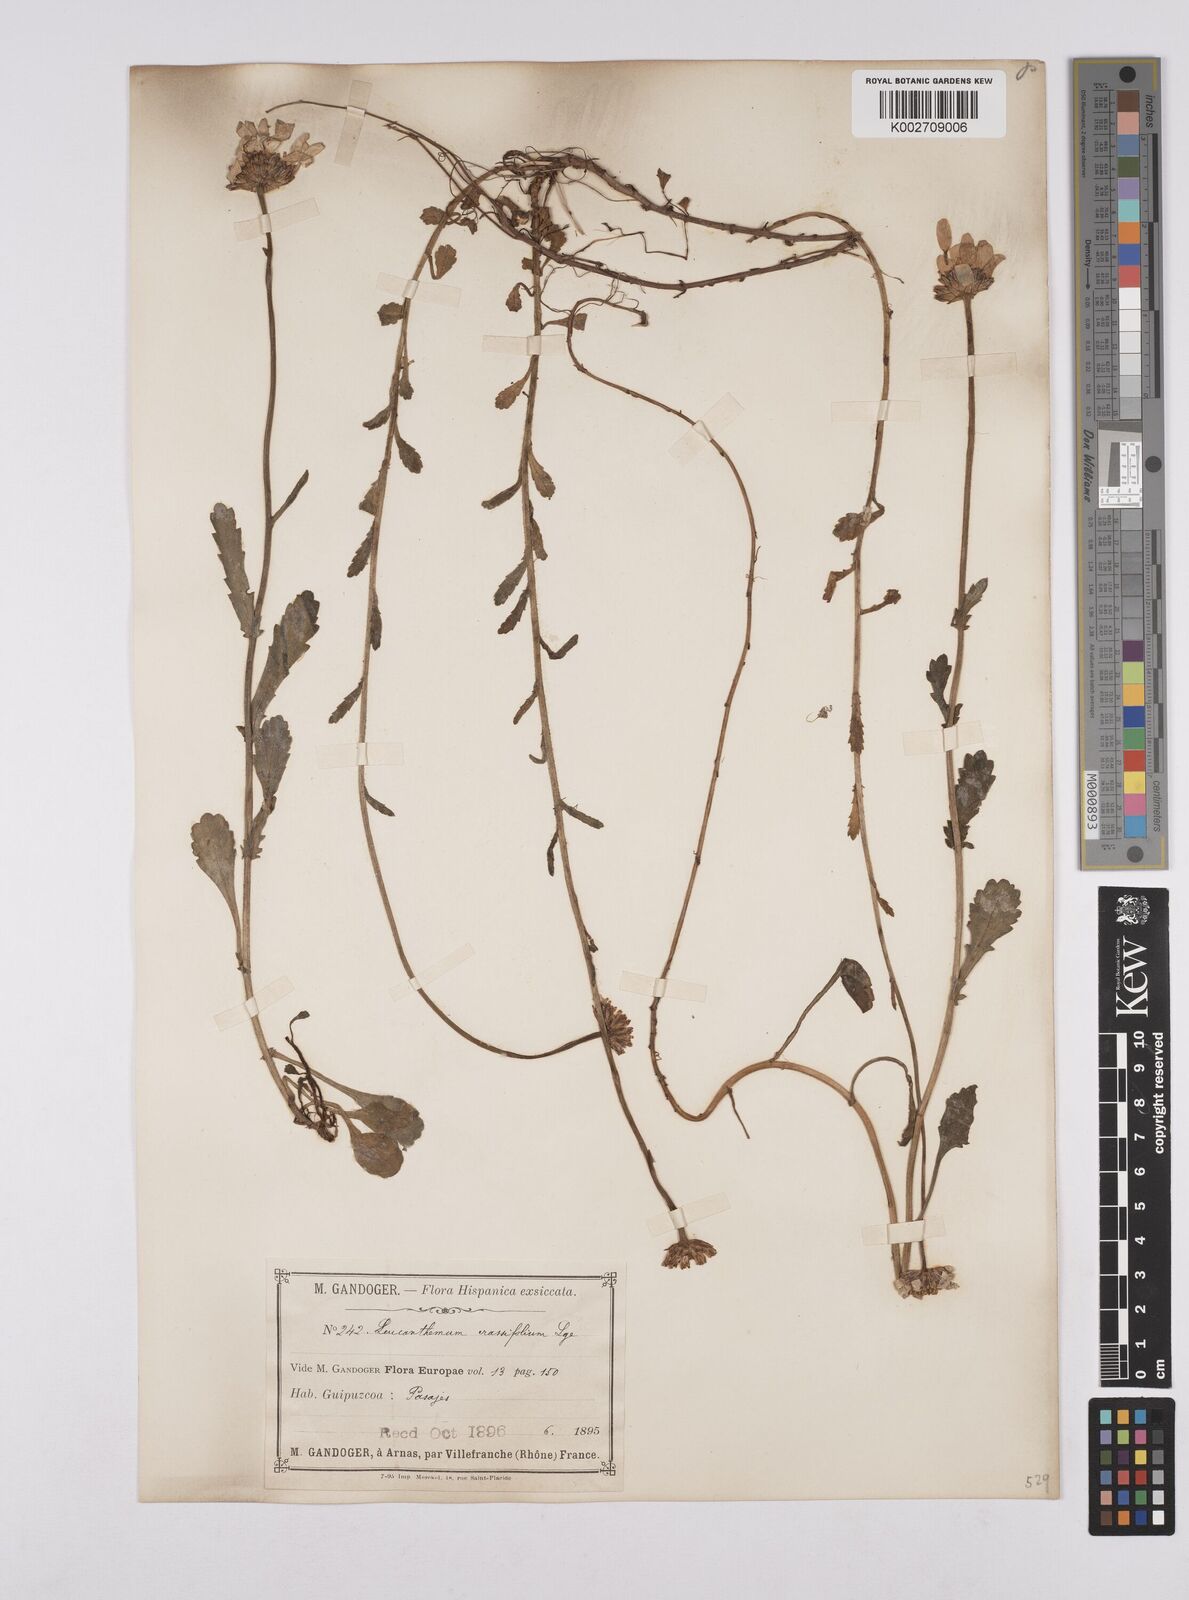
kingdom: Plantae
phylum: Tracheophyta
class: Magnoliopsida
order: Asterales
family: Asteraceae
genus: Leucanthemum
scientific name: Leucanthemum ircutianum
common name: Daisy
